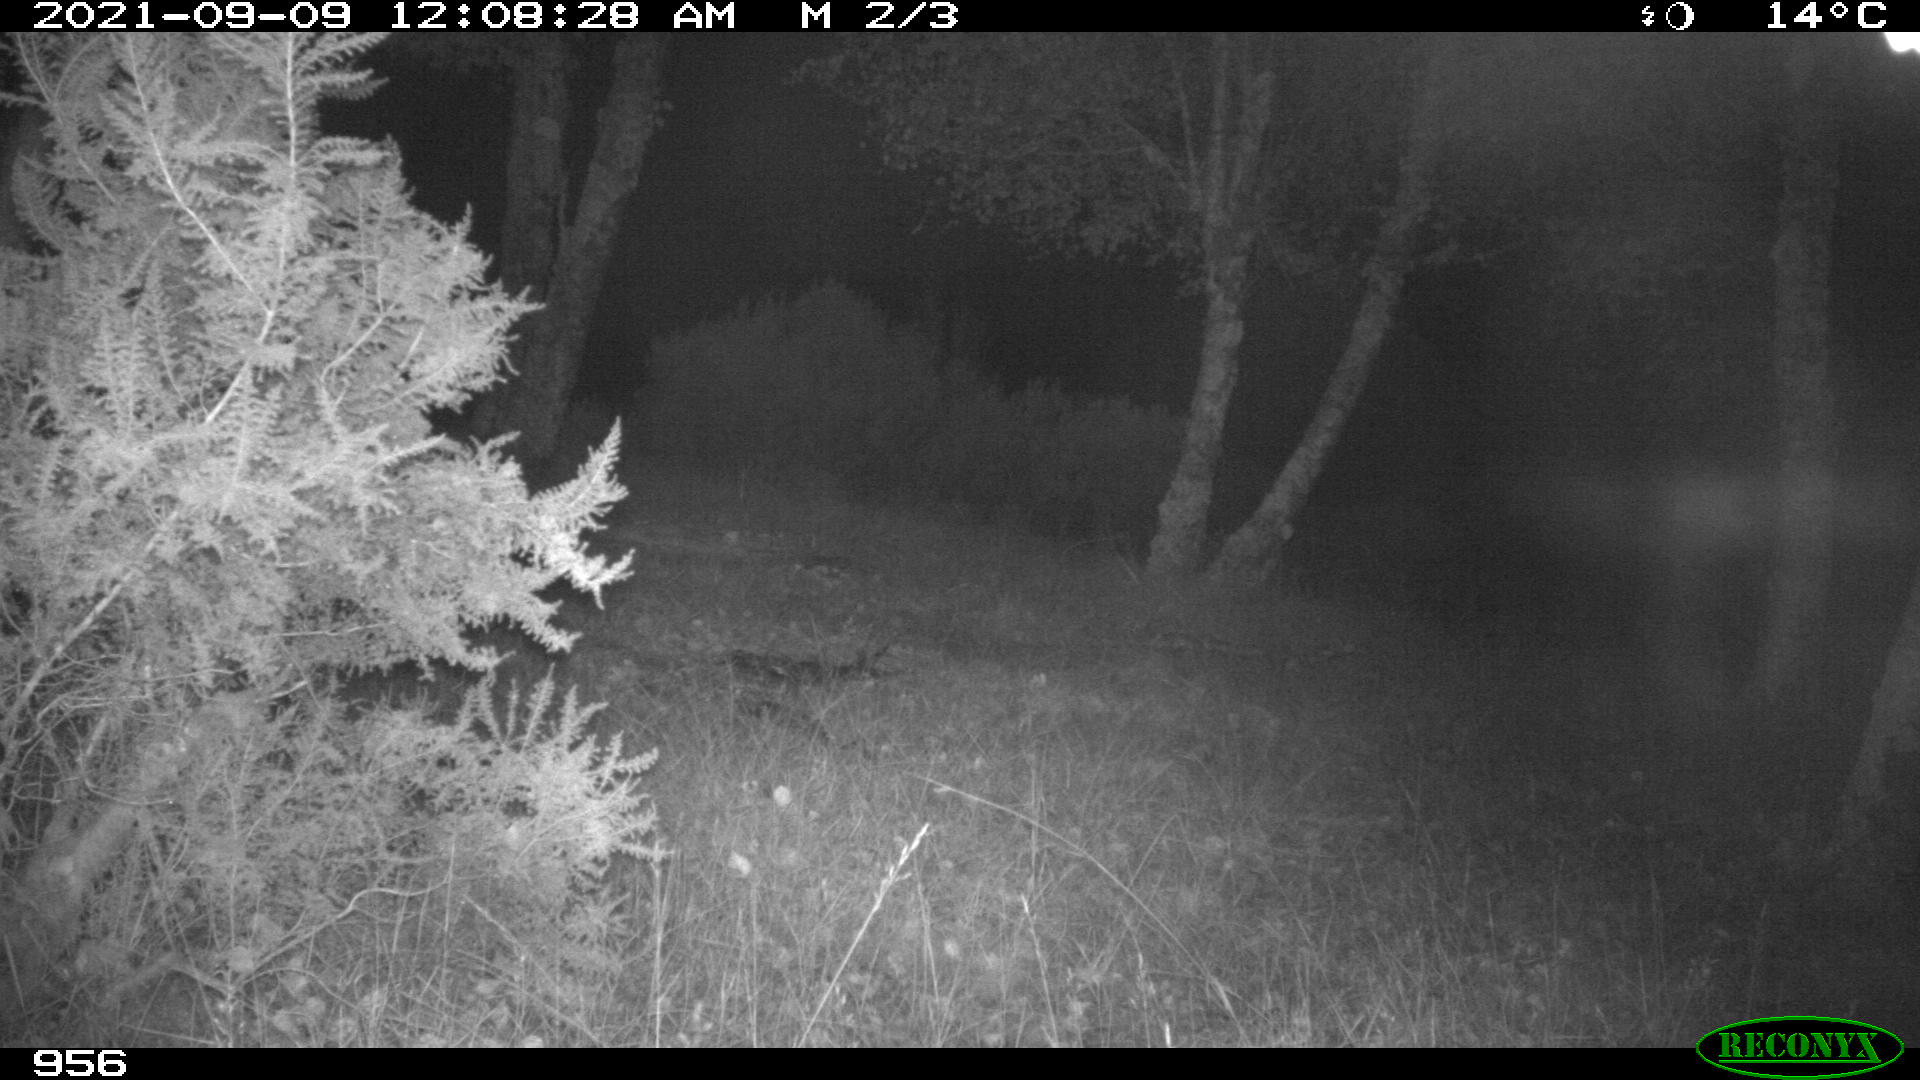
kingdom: Animalia
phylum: Chordata
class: Mammalia
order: Artiodactyla
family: Cervidae
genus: Capreolus
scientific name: Capreolus capreolus
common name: Western roe deer
